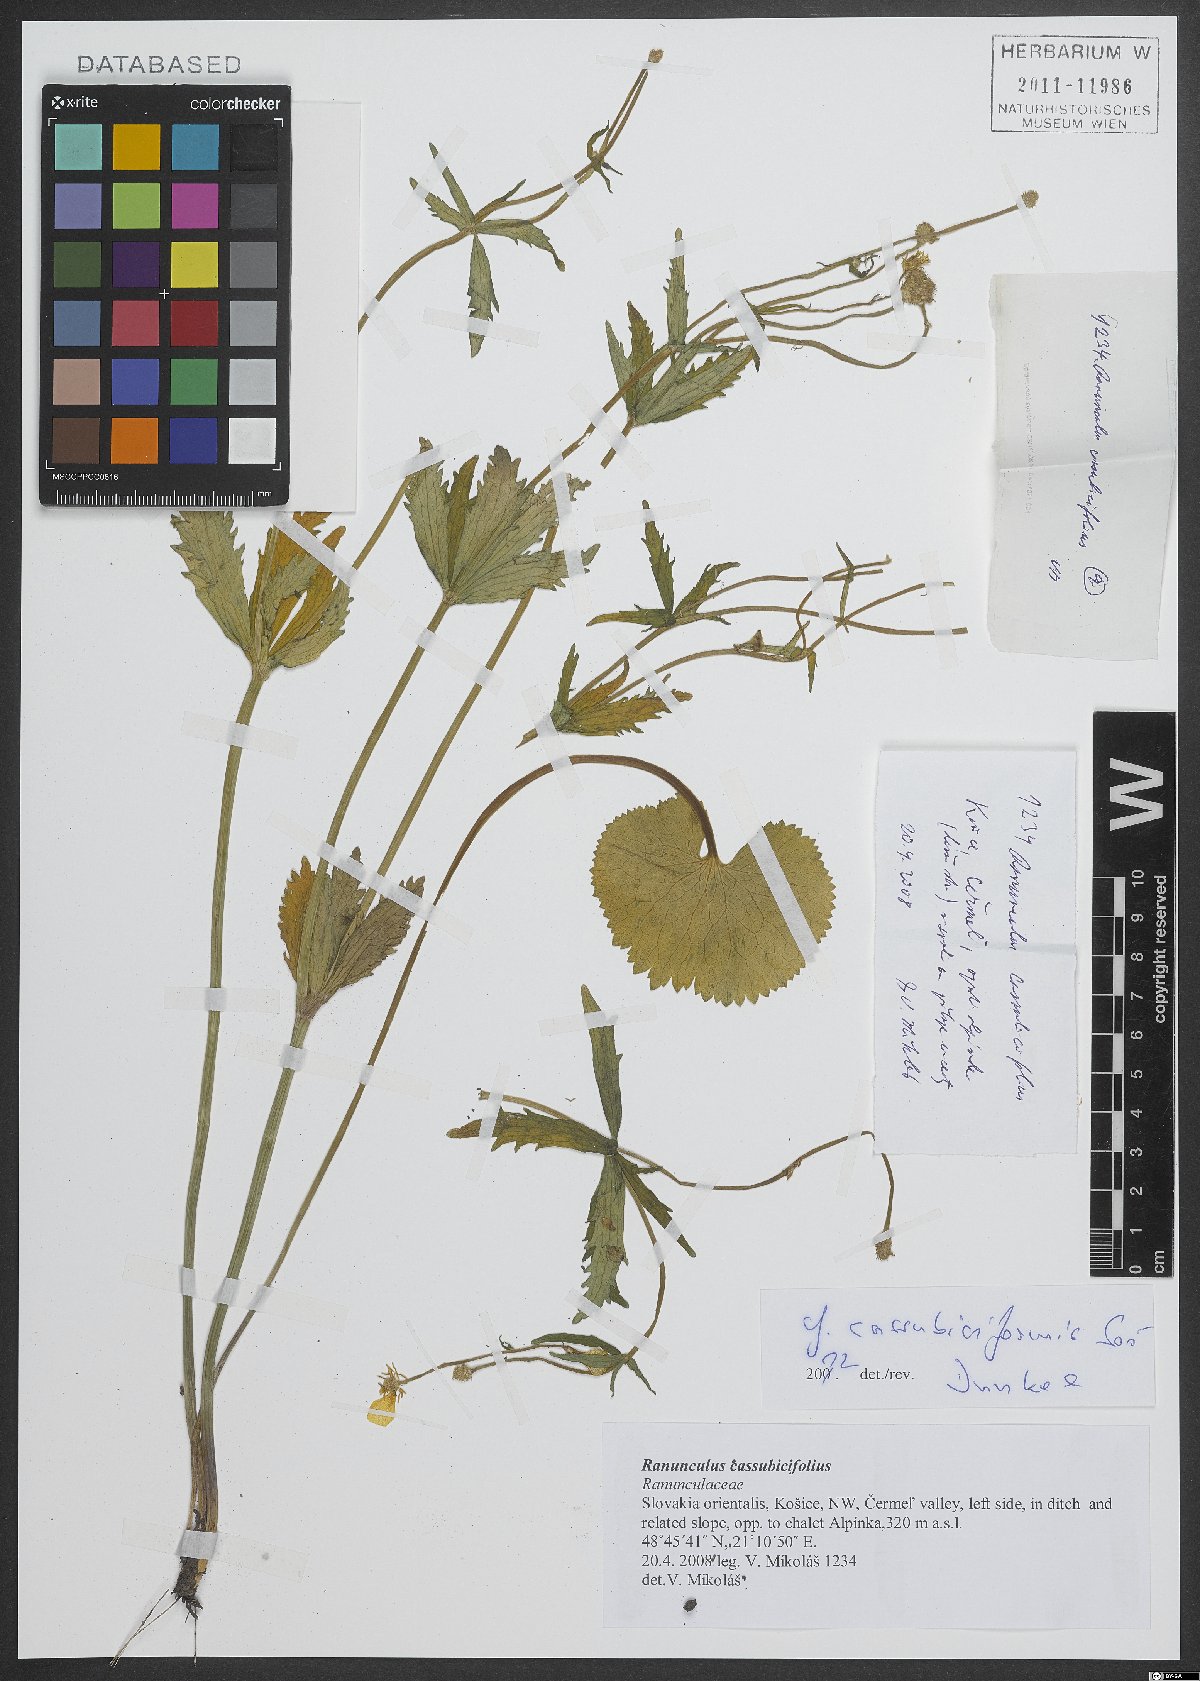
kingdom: Plantae
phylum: Tracheophyta
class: Magnoliopsida
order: Ranunculales
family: Ranunculaceae
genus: Ranunculus
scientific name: Ranunculus cassubicifolius
